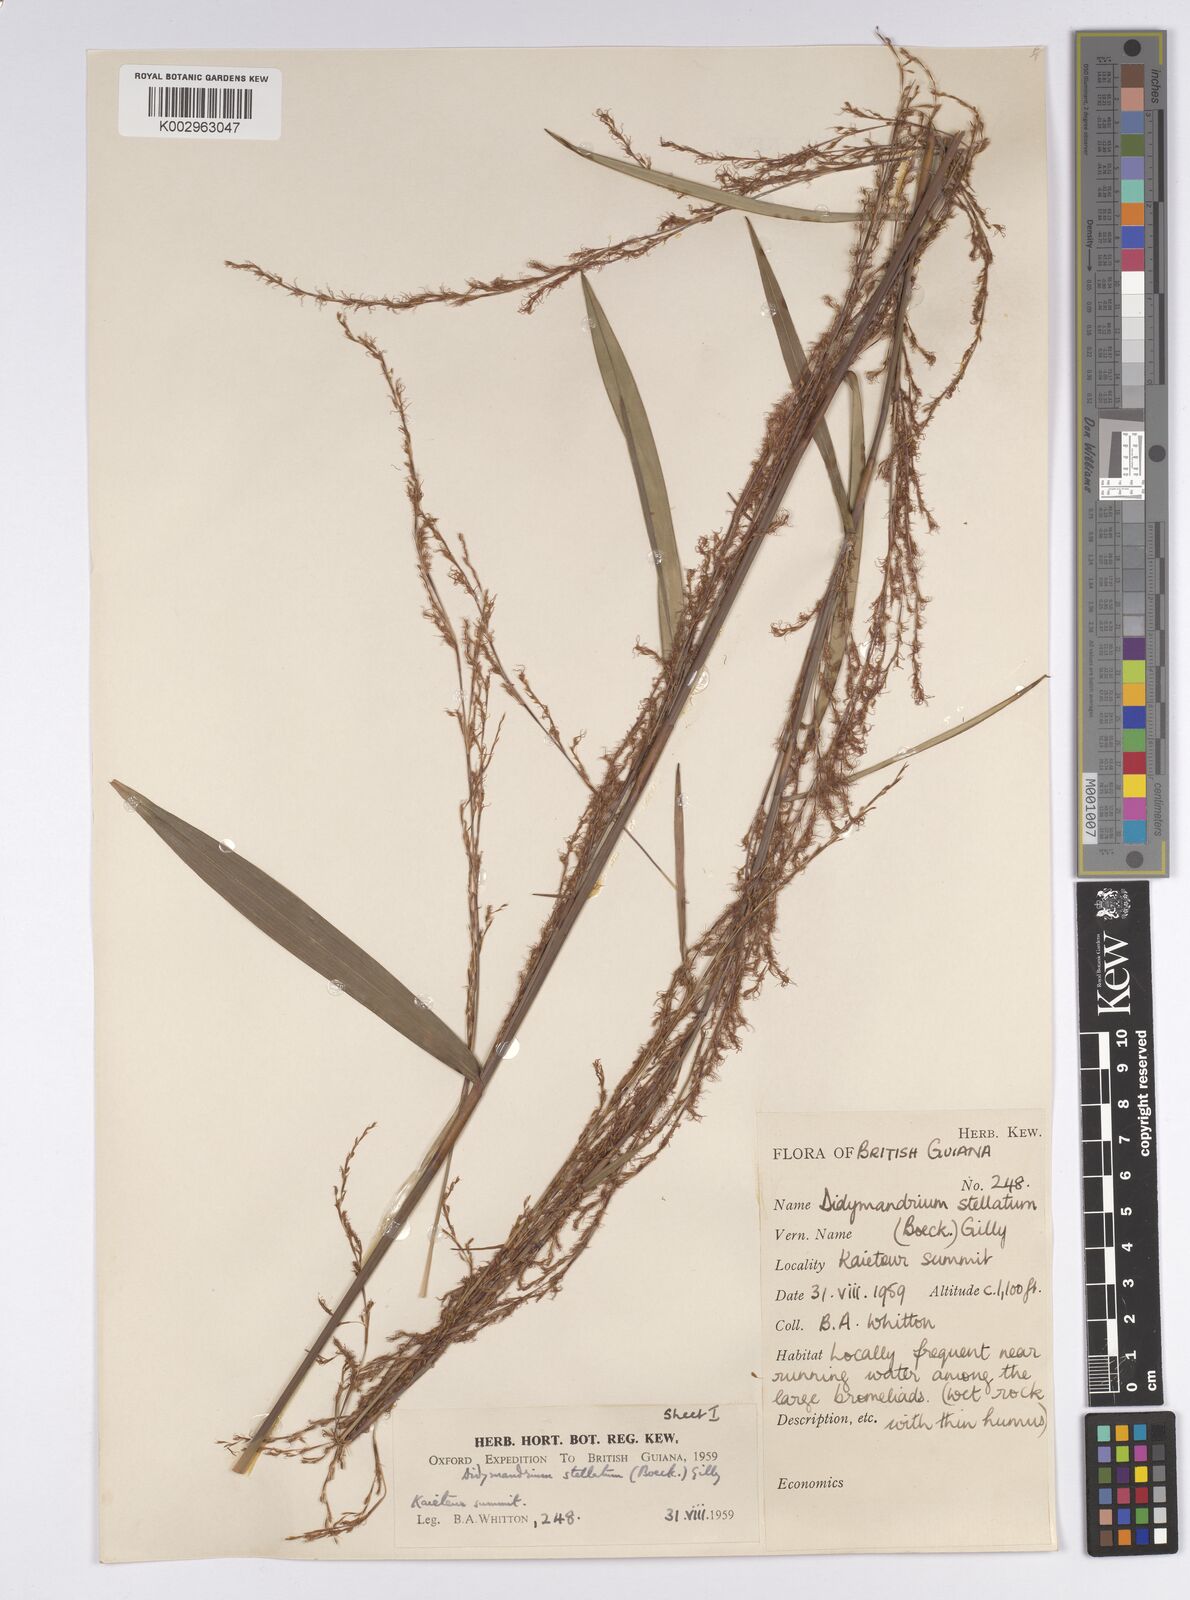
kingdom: Plantae
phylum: Tracheophyta
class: Liliopsida
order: Poales
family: Cyperaceae
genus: Didymiandrum
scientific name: Didymiandrum stellatum
